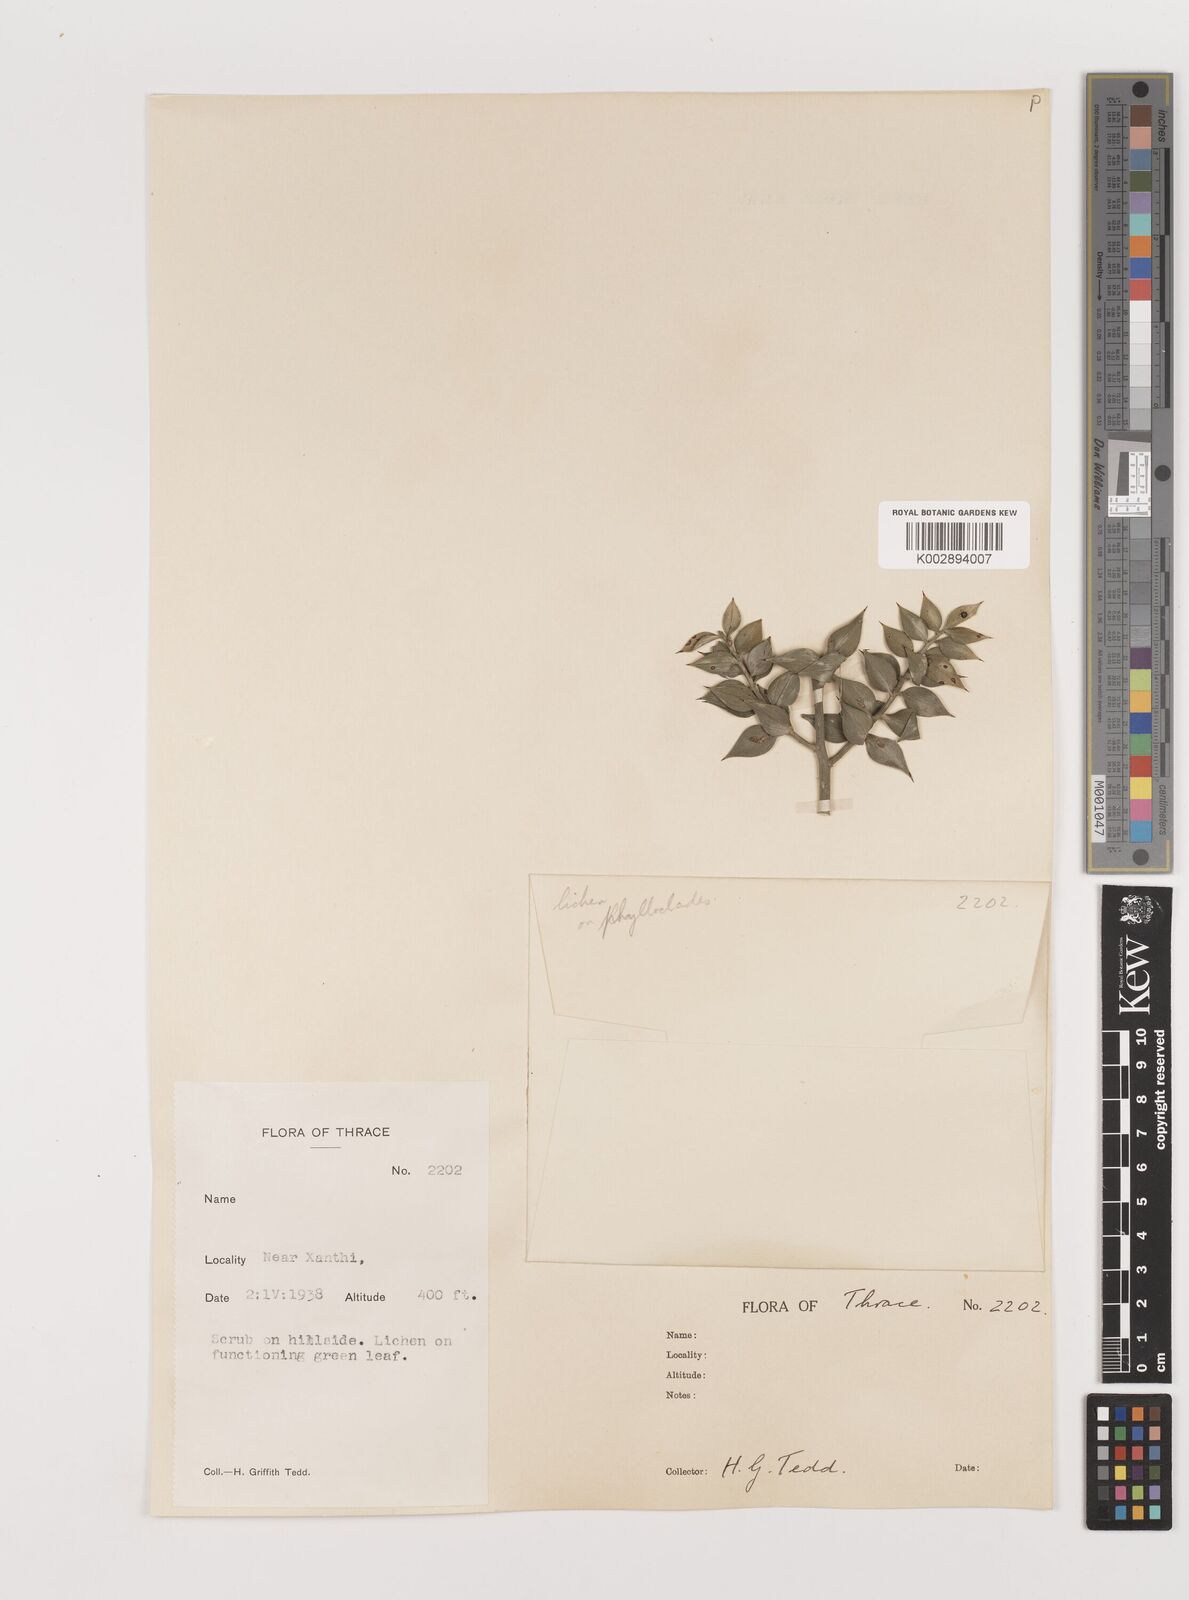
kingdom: Plantae
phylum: Tracheophyta
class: Liliopsida
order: Asparagales
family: Asparagaceae
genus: Ruscus
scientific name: Ruscus aculeatus
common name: Butcher's-broom
